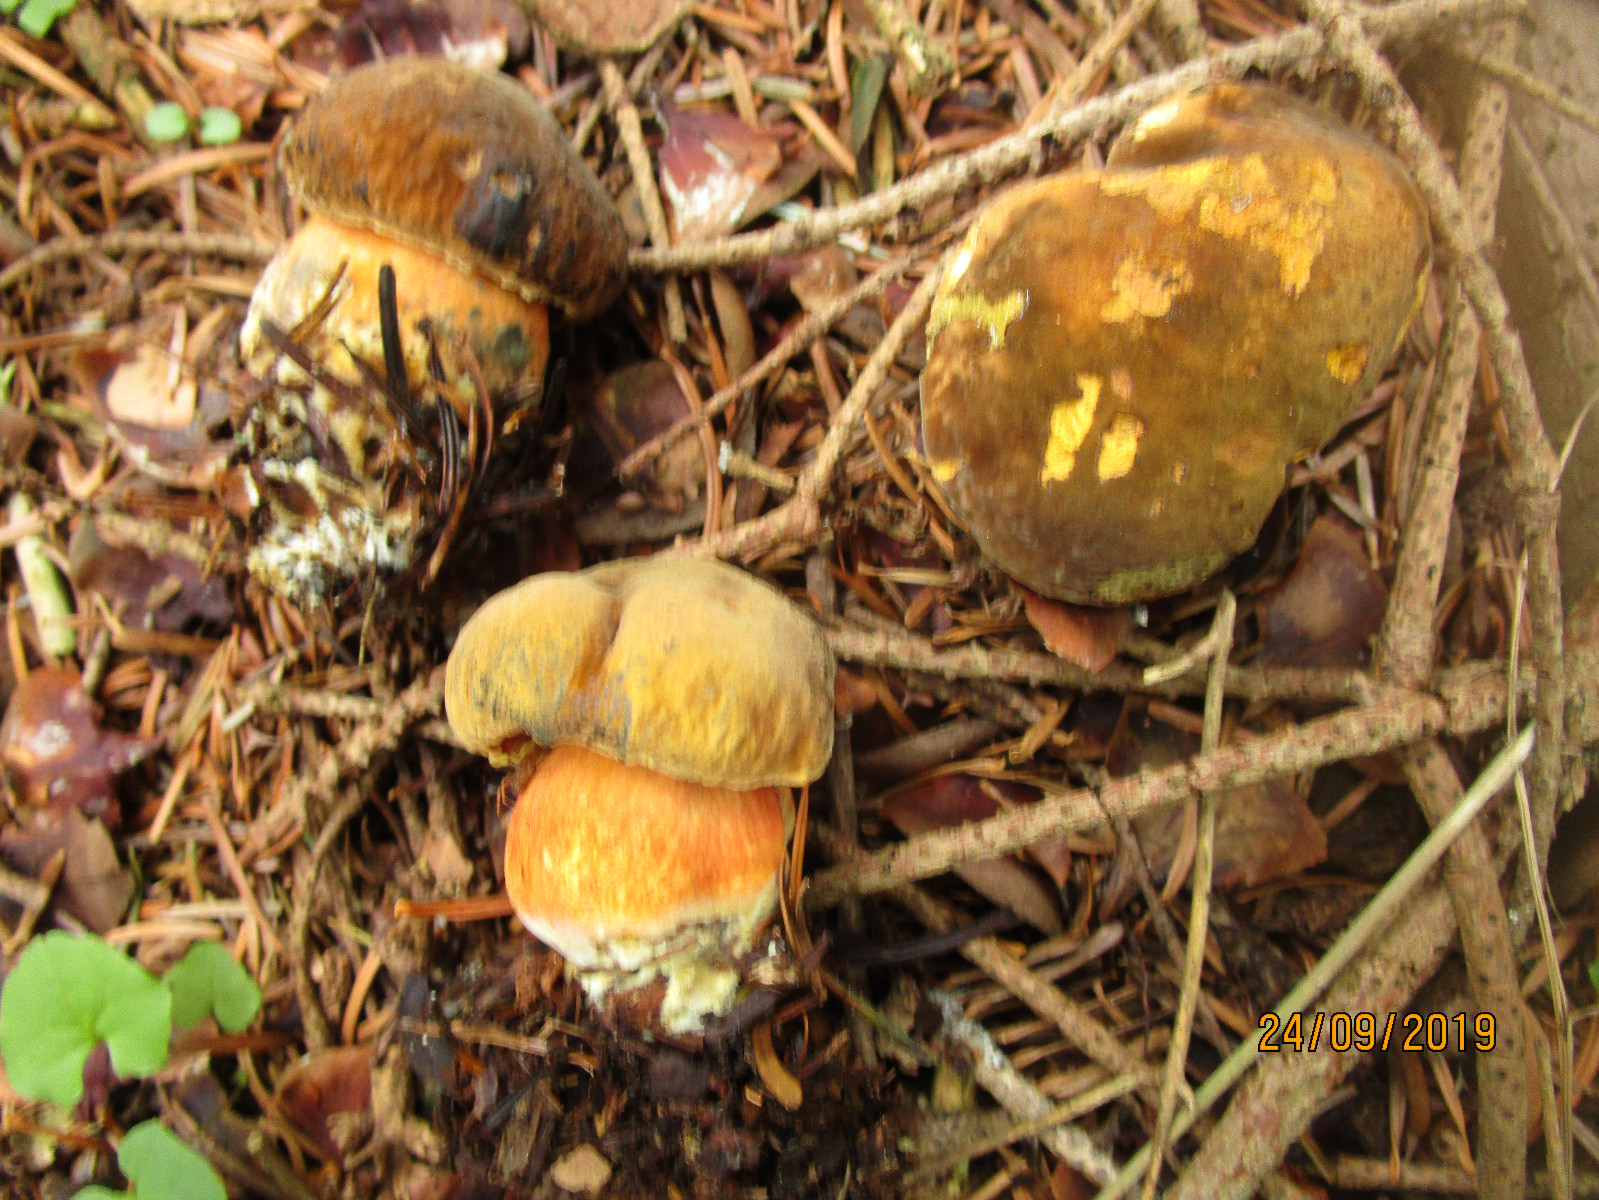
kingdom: Fungi
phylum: Basidiomycota
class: Agaricomycetes
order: Boletales
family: Boletaceae
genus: Neoboletus
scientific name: Neoboletus erythropus
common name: punktstokket indigorørhat
